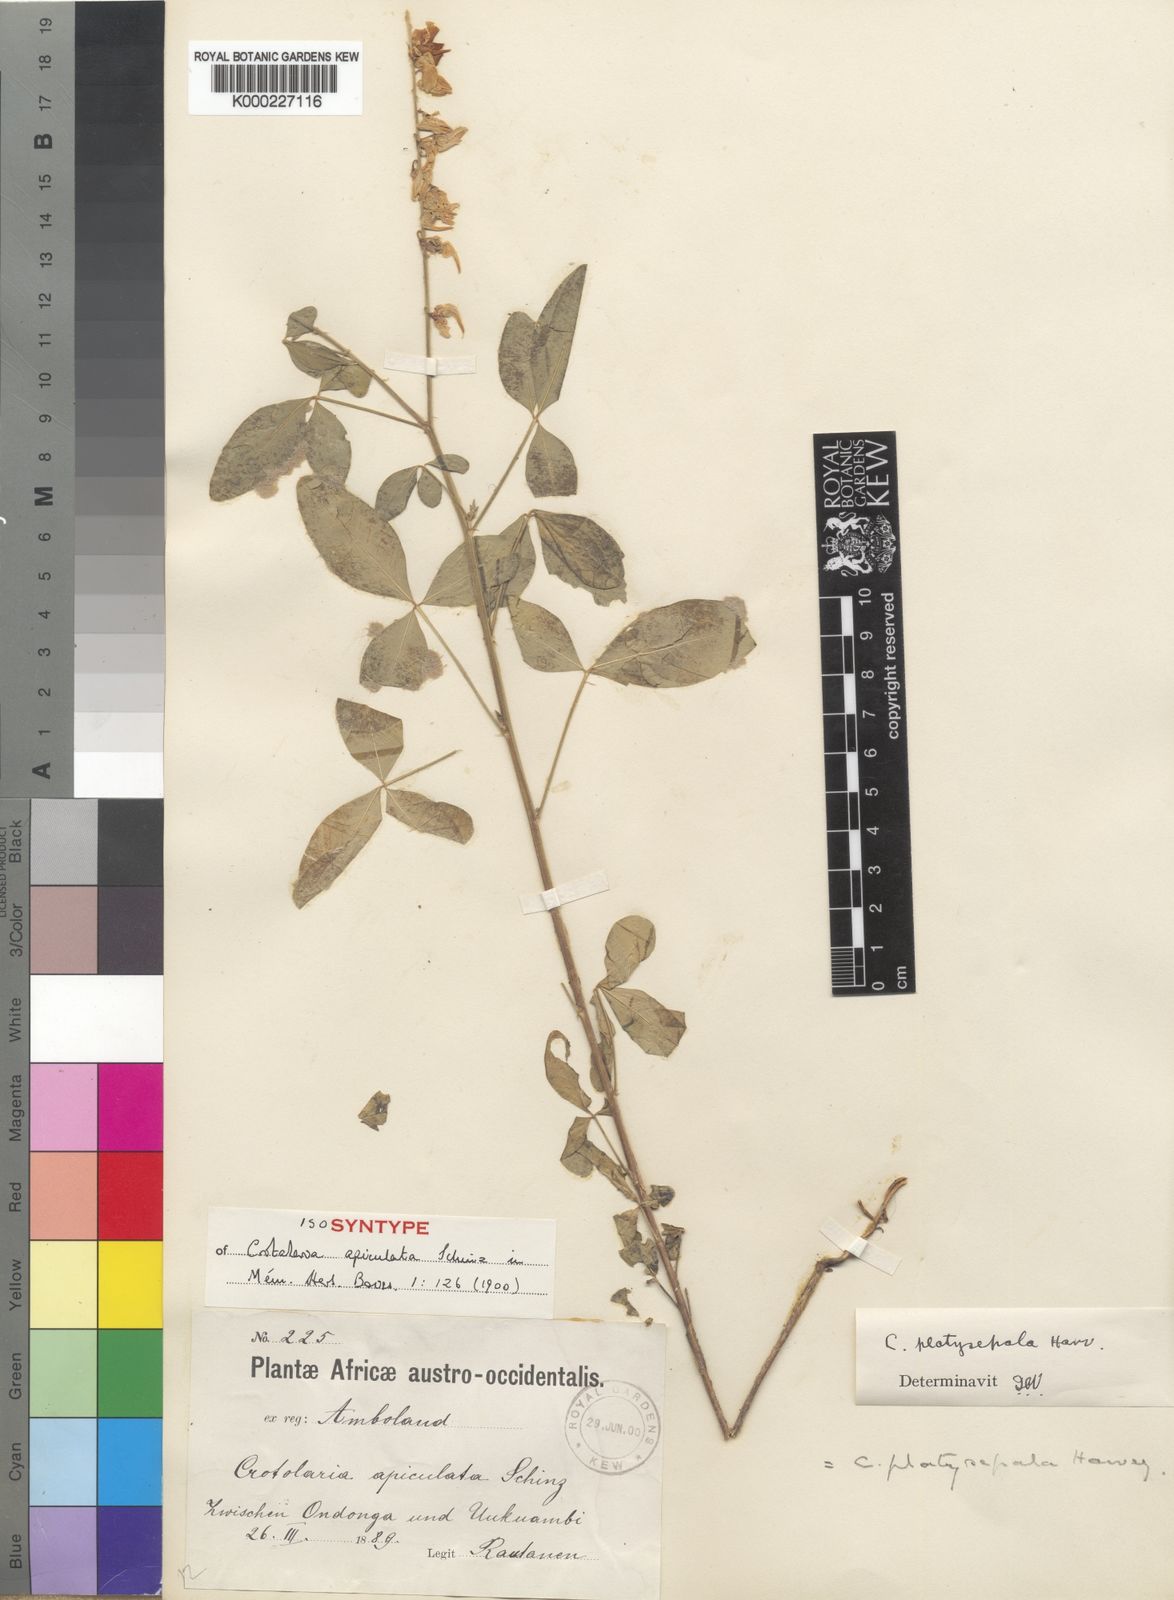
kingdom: Plantae
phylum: Tracheophyta
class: Magnoliopsida
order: Fabales
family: Fabaceae
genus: Crotalaria
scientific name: Crotalaria platysepala
